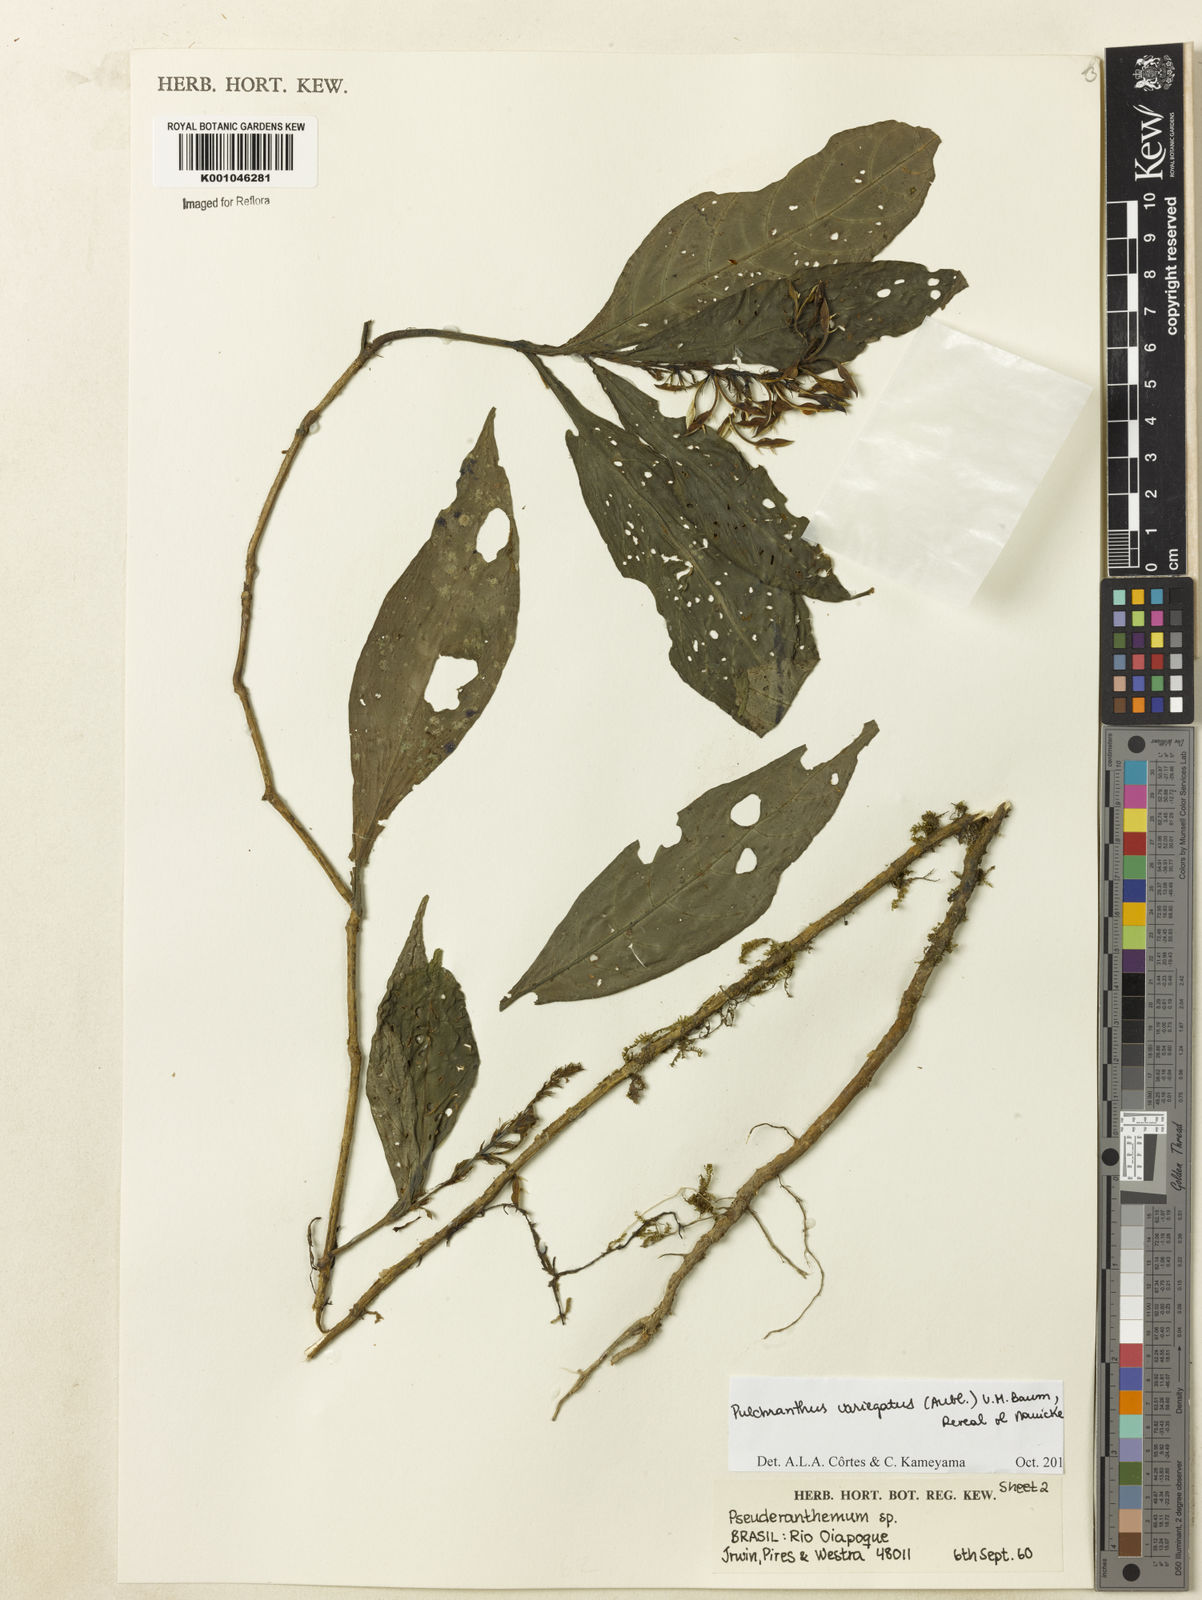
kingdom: Plantae
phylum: Tracheophyta
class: Magnoliopsida
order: Lamiales
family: Acanthaceae
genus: Pulchranthus
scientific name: Pulchranthus
